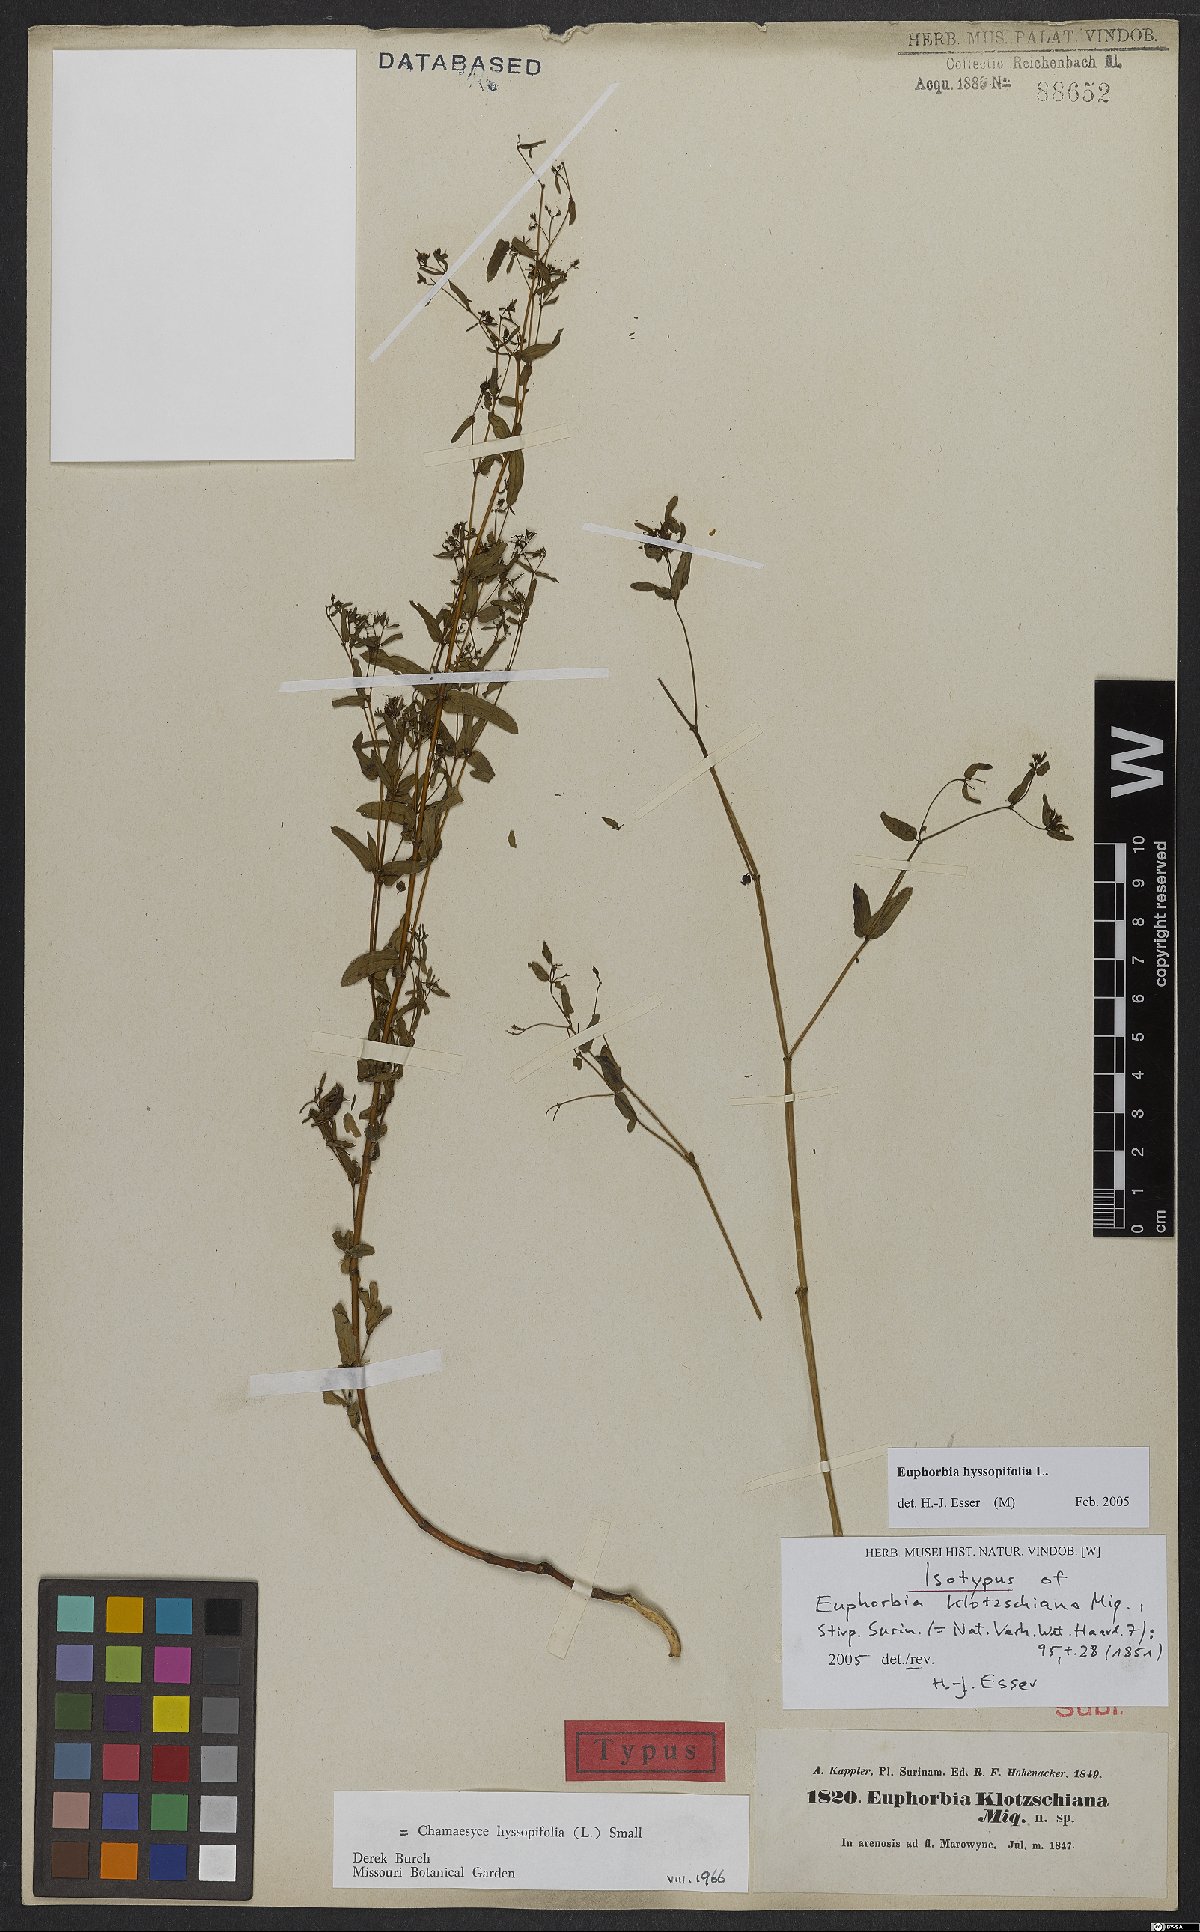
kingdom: Plantae
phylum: Tracheophyta
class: Magnoliopsida
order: Malpighiales
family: Euphorbiaceae
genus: Euphorbia
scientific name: Euphorbia hyssopifolia
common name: Hyssopleaf sandmat
